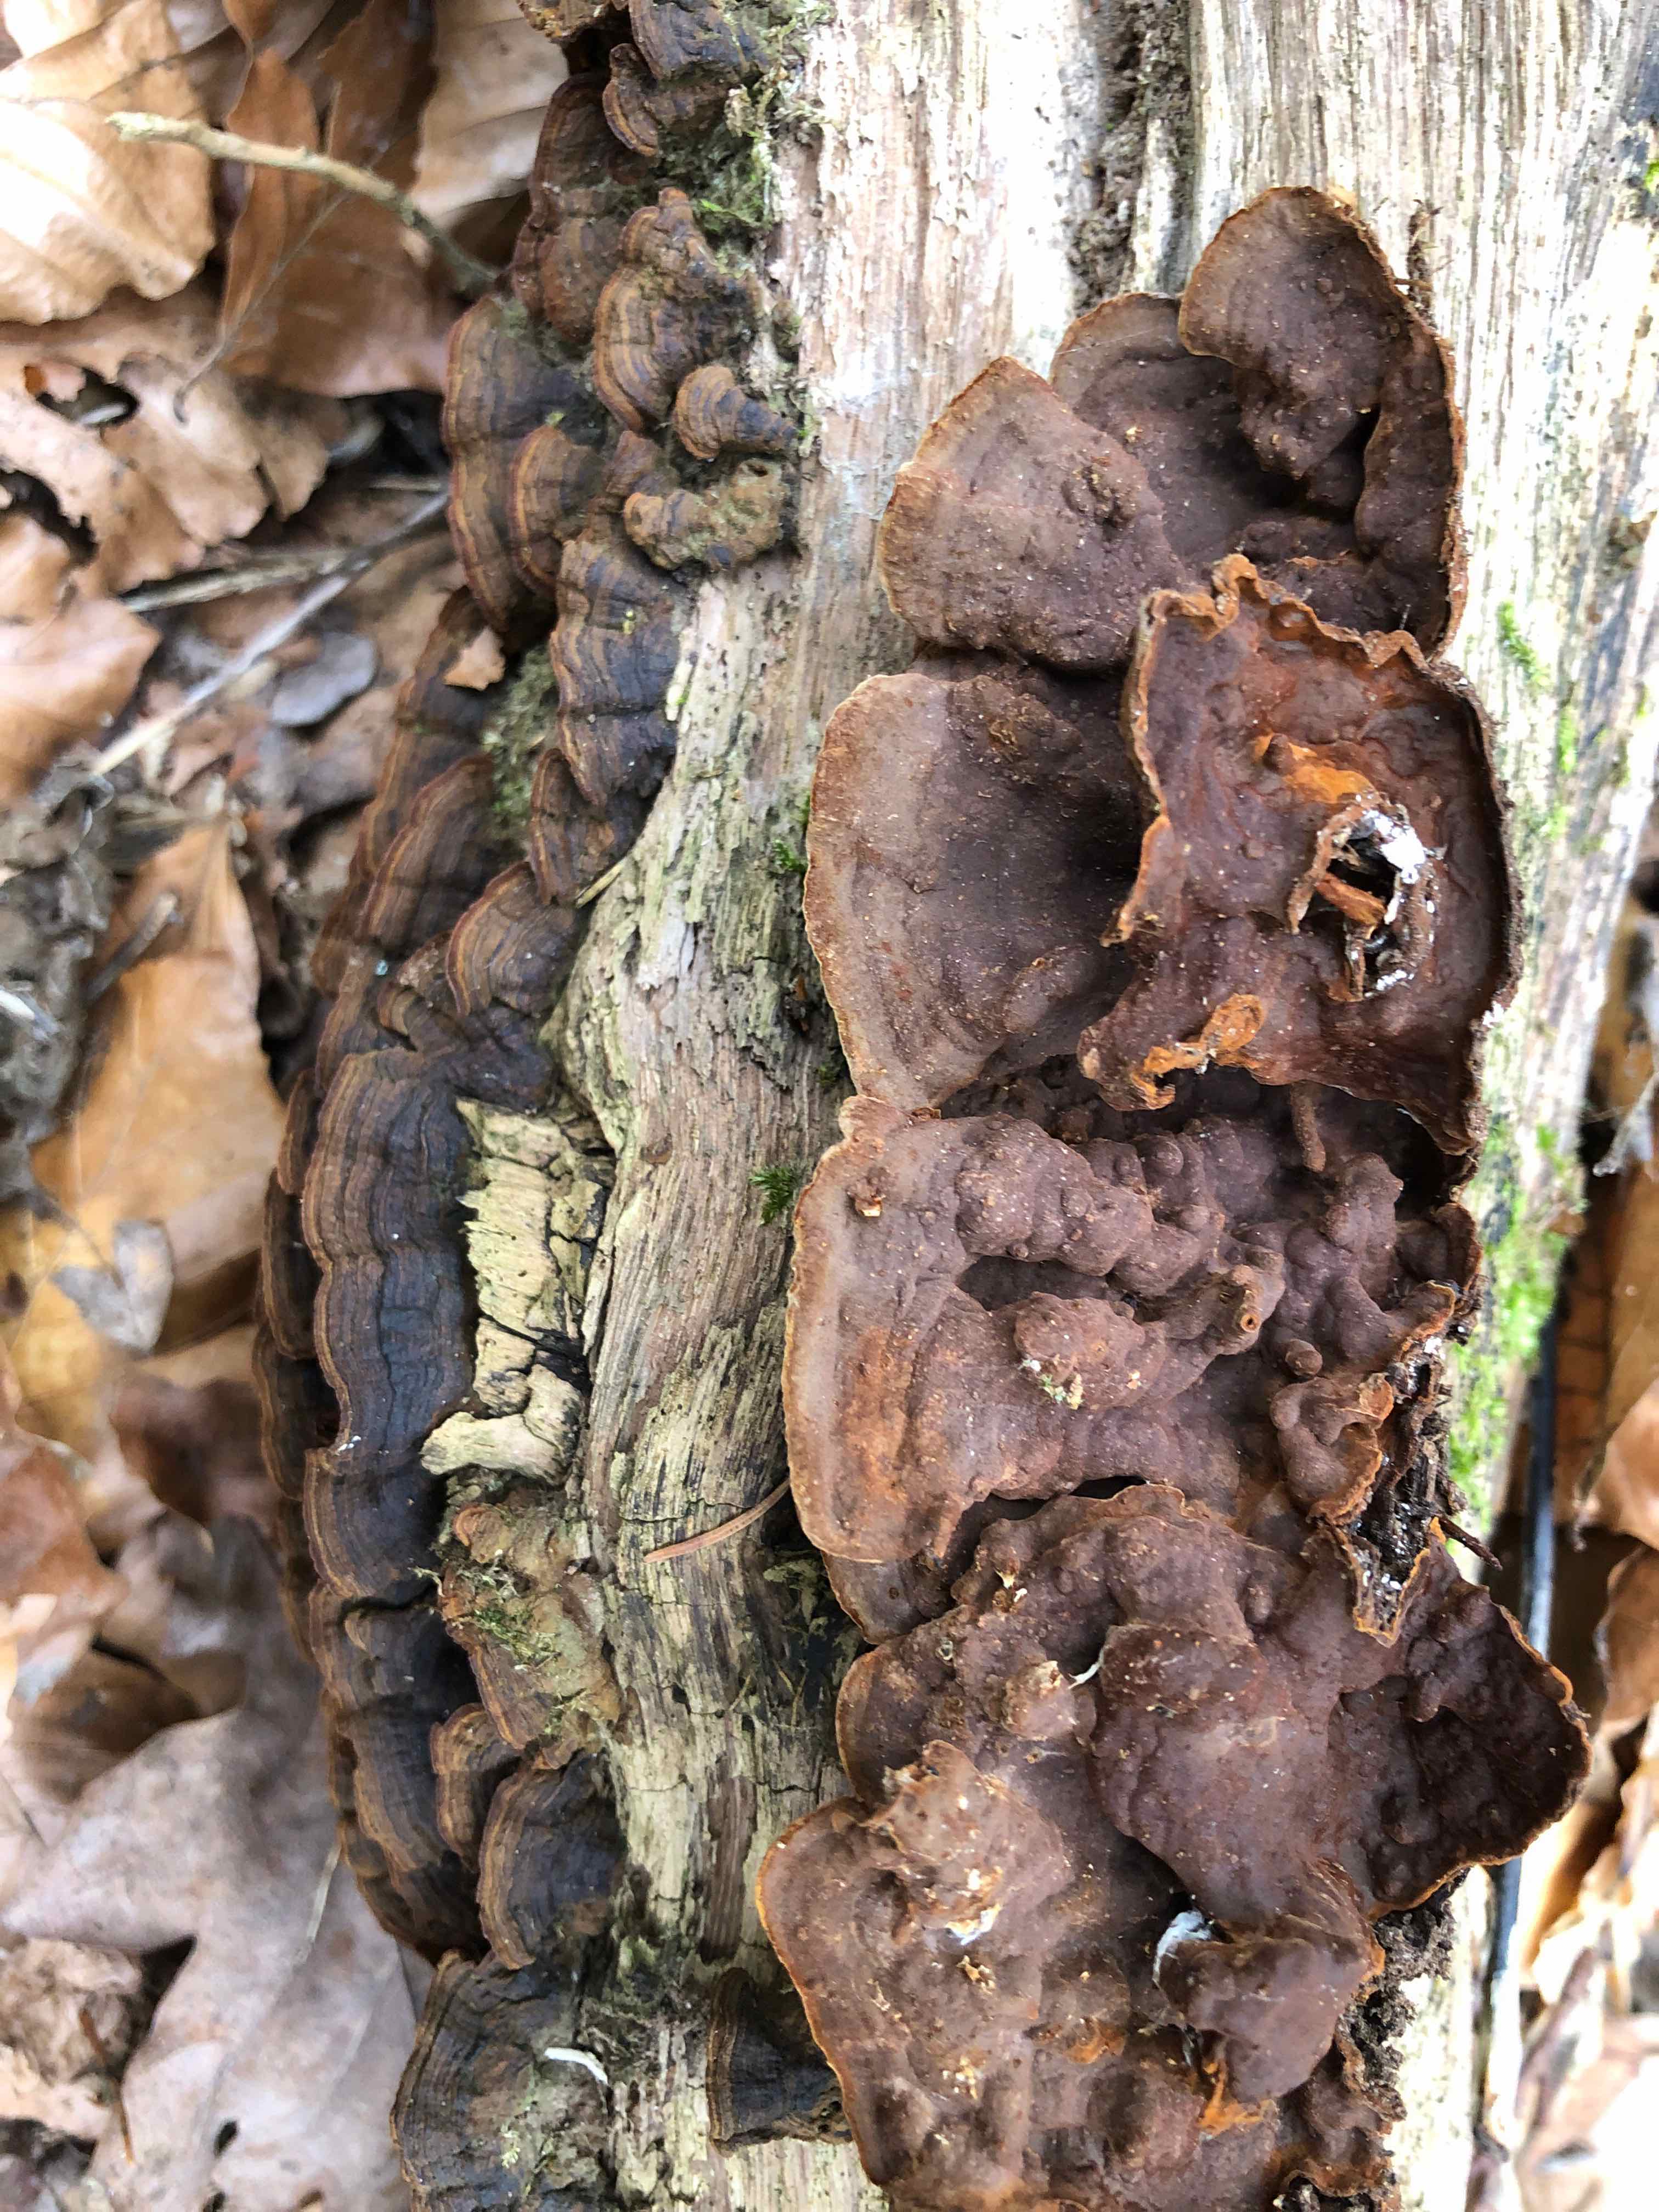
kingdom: Fungi
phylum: Basidiomycota
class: Agaricomycetes
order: Hymenochaetales
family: Hymenochaetaceae
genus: Hymenochaete
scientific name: Hymenochaete rubiginosa
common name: stiv ruslædersvamp
